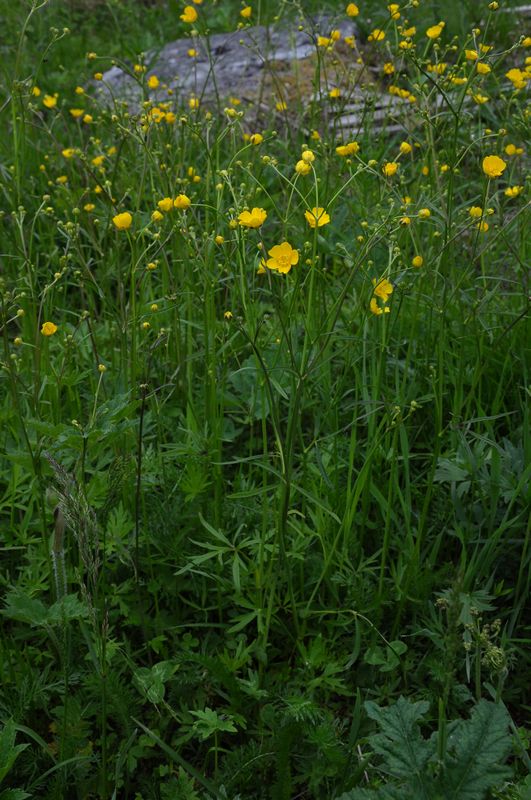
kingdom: Plantae
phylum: Tracheophyta
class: Magnoliopsida
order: Ranunculales
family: Ranunculaceae
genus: Ranunculus
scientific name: Ranunculus acris
